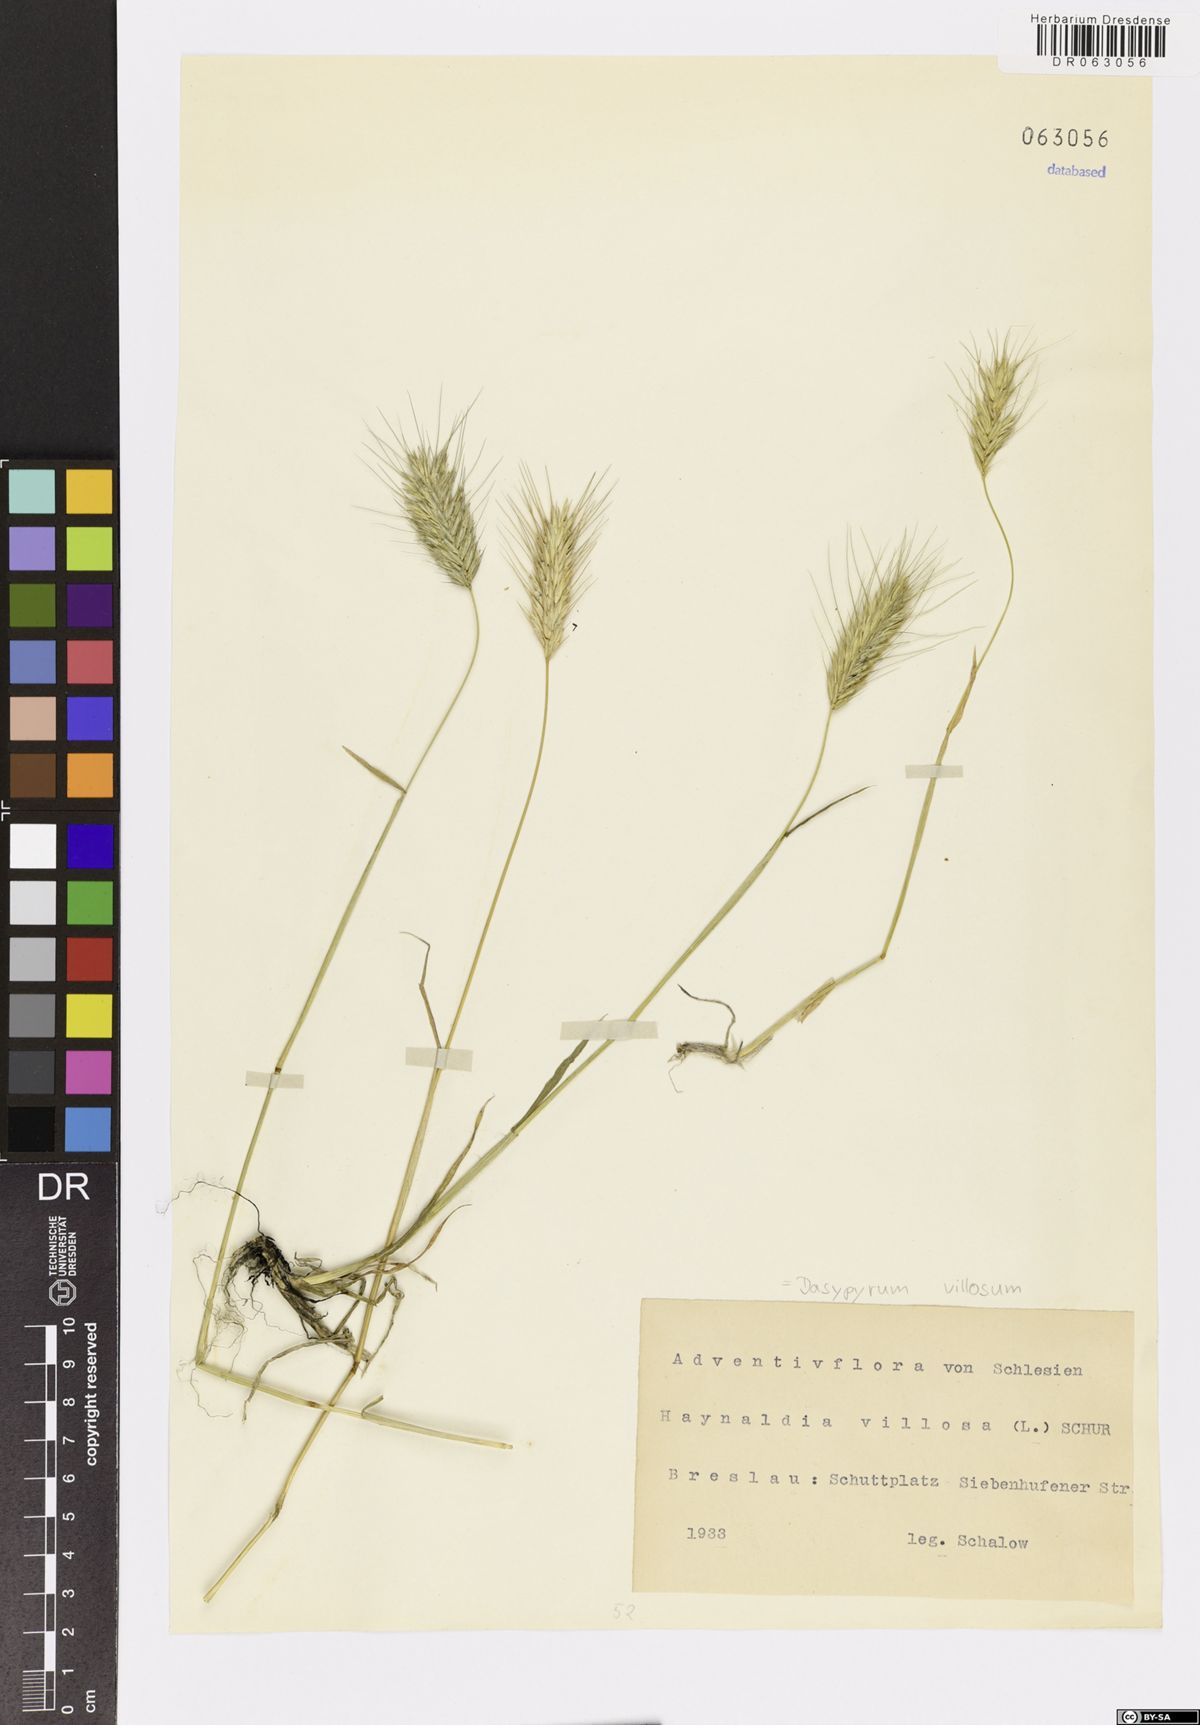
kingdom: Plantae
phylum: Tracheophyta
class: Liliopsida
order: Poales
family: Poaceae
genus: Dasypyrum
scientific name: Dasypyrum villosum
